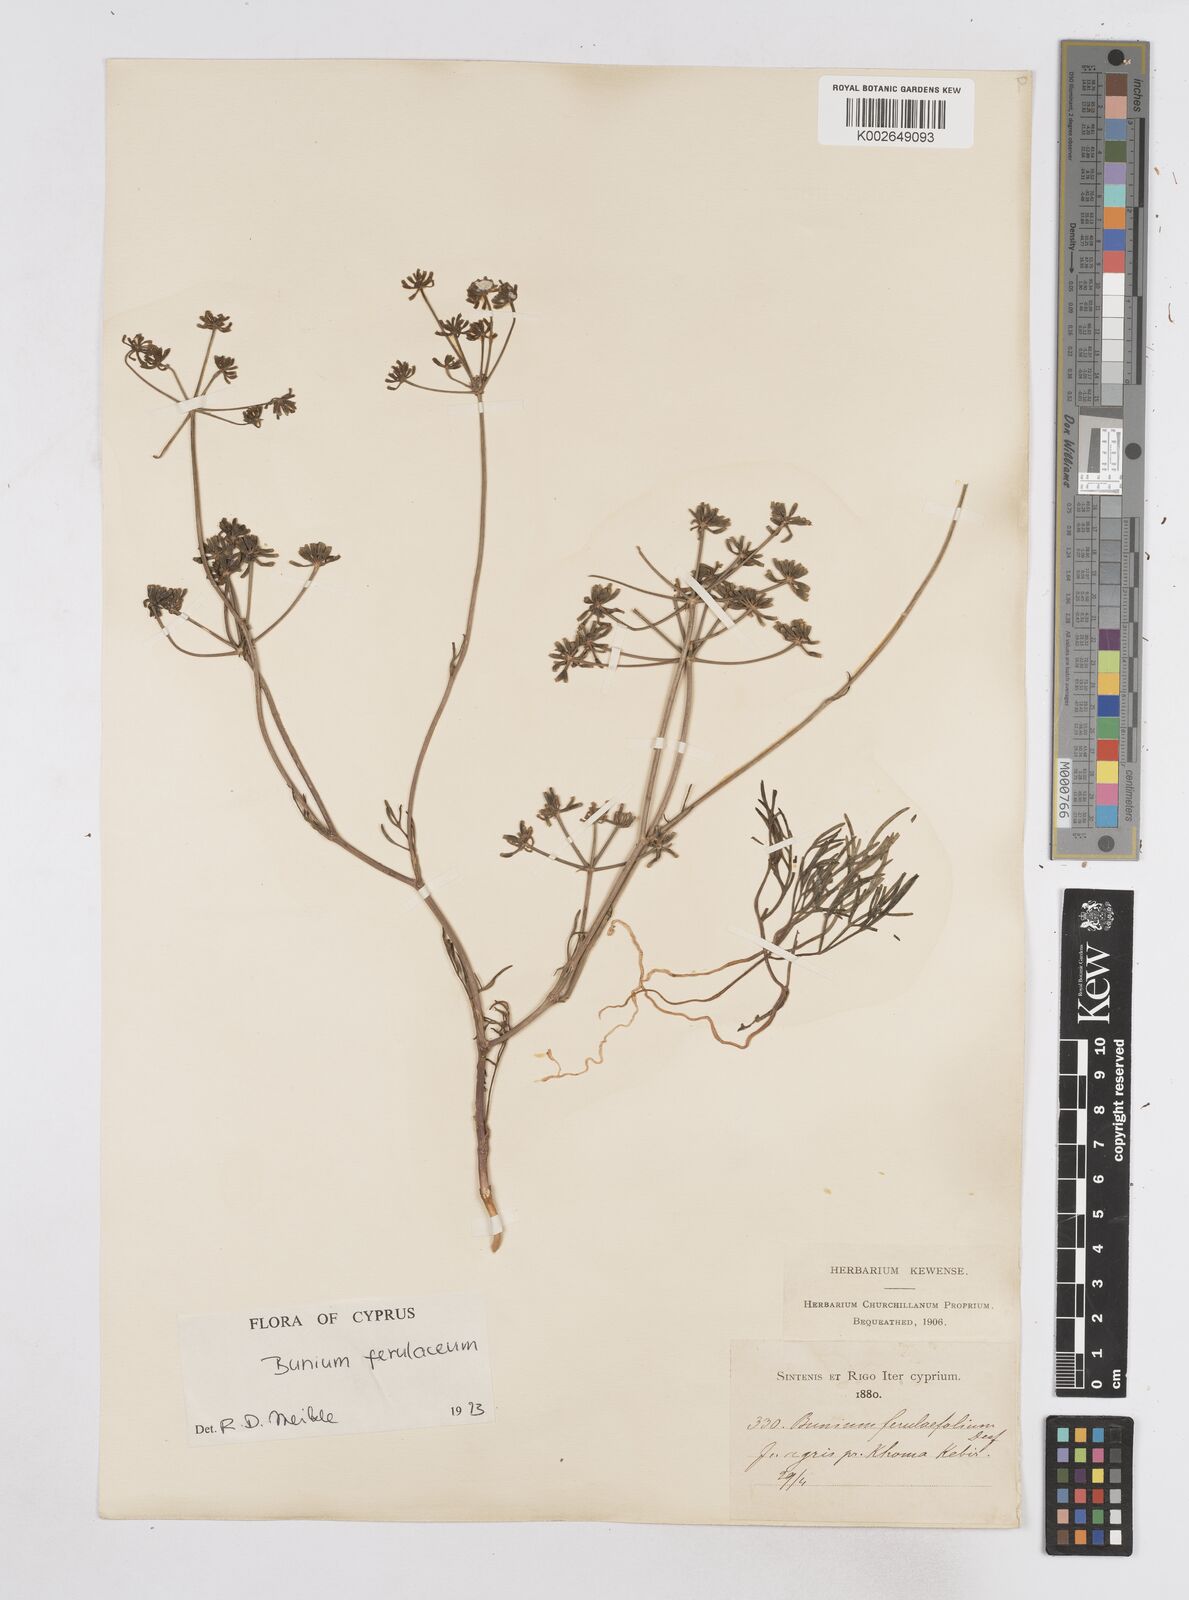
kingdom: Plantae
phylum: Tracheophyta
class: Magnoliopsida
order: Apiales
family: Apiaceae
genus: Bunium
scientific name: Bunium ferulaceum
